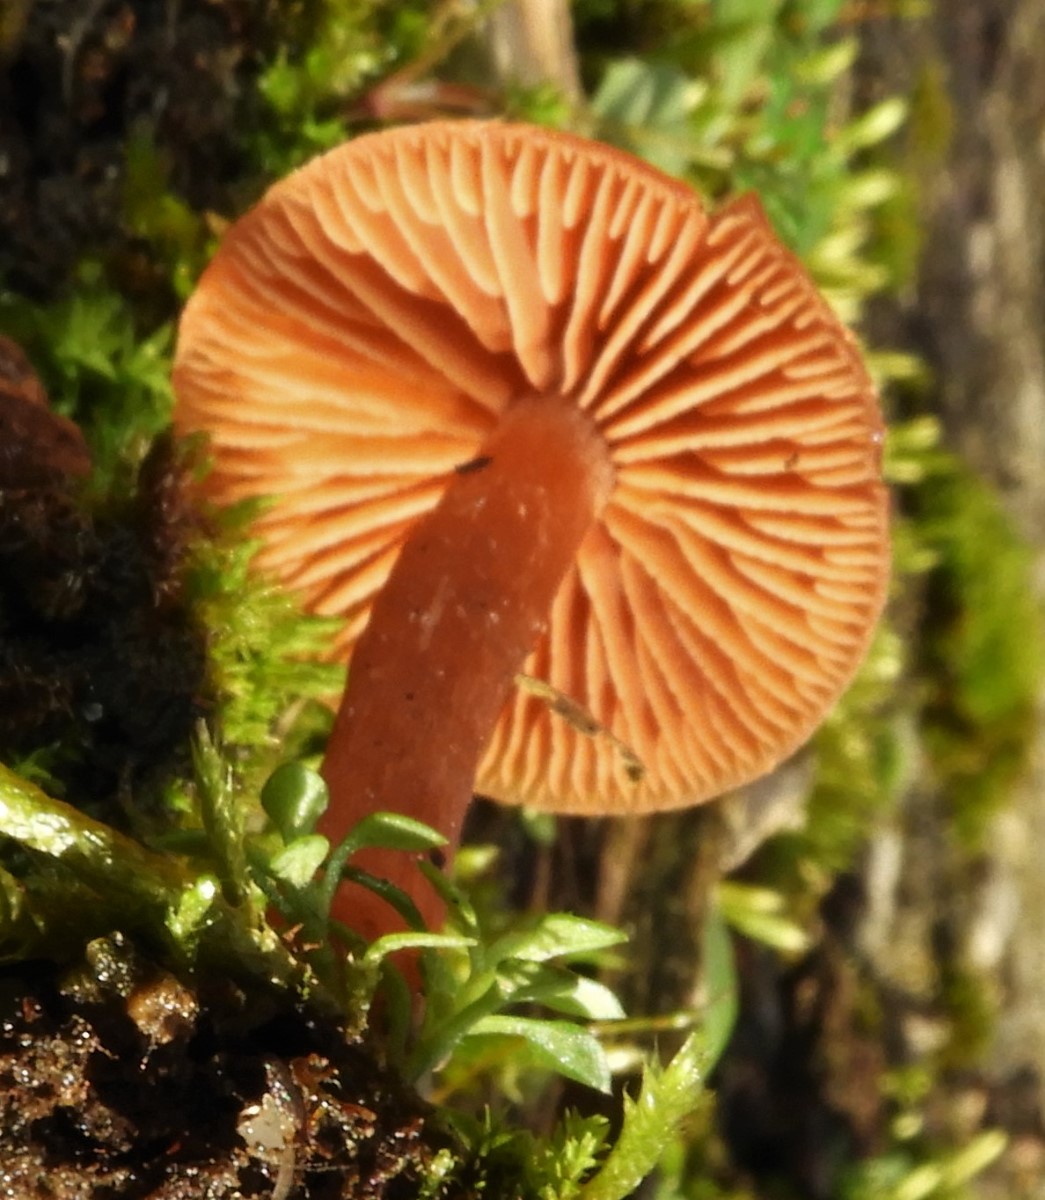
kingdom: Fungi
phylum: Basidiomycota
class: Agaricomycetes
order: Agaricales
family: Tubariaceae
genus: Tubaria
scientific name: Tubaria furfuracea
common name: kliddet fnughat
